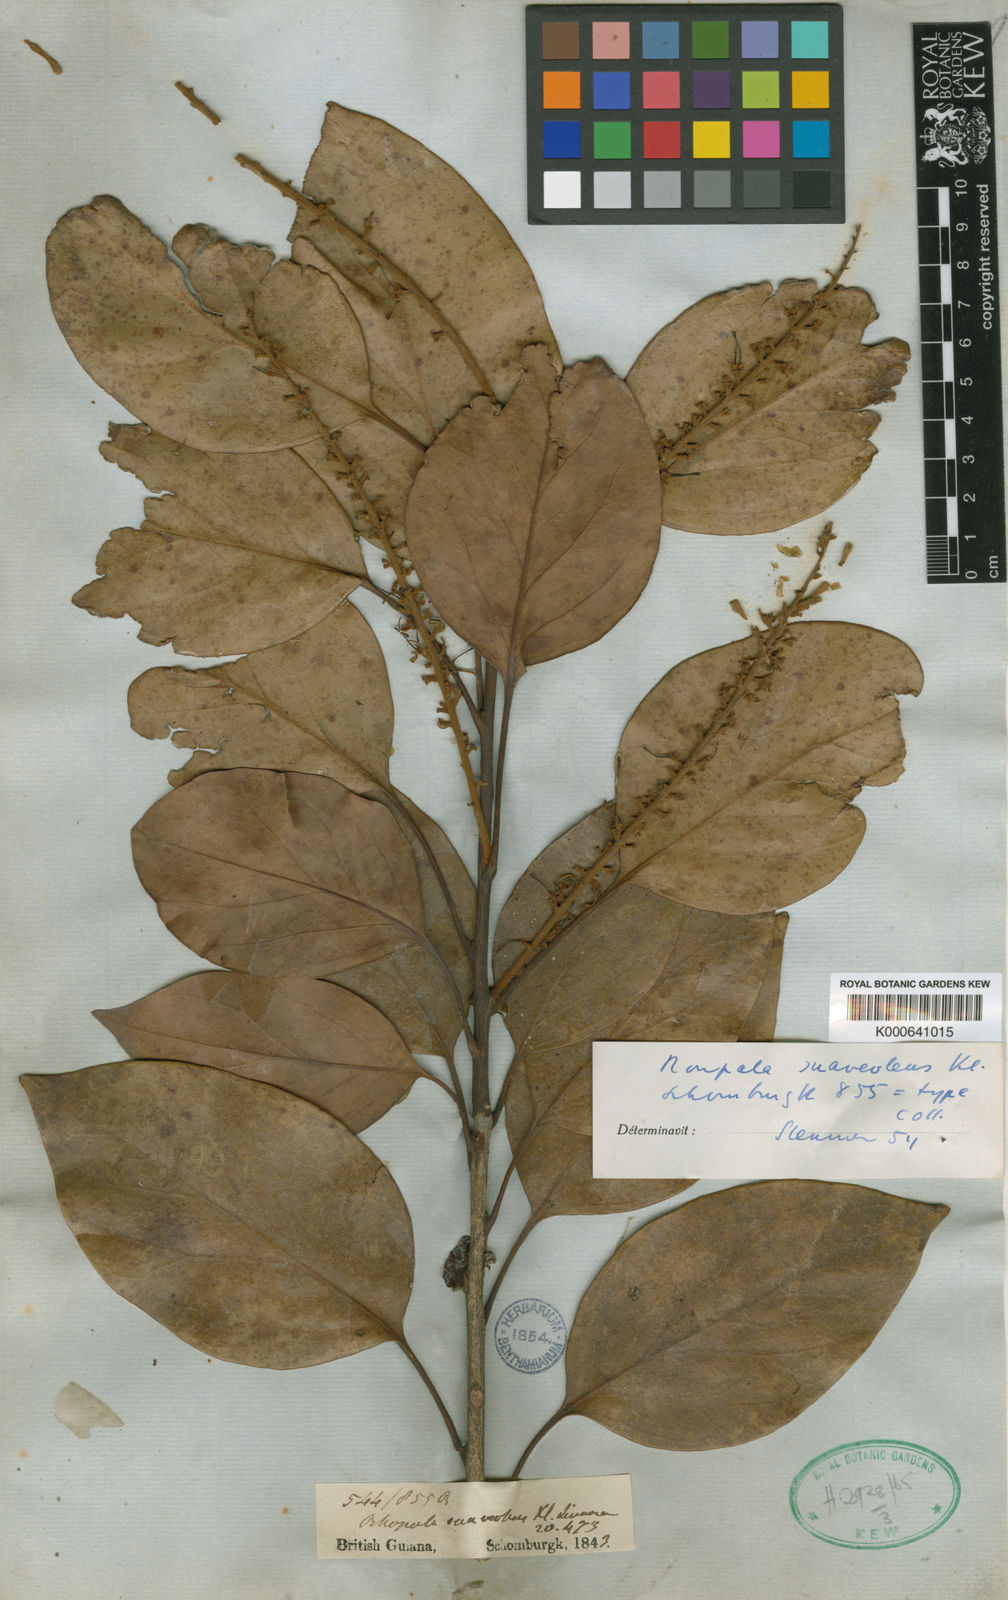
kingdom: Plantae
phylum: Tracheophyta
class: Magnoliopsida
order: Proteales
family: Proteaceae
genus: Roupala
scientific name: Roupala suaveolens
